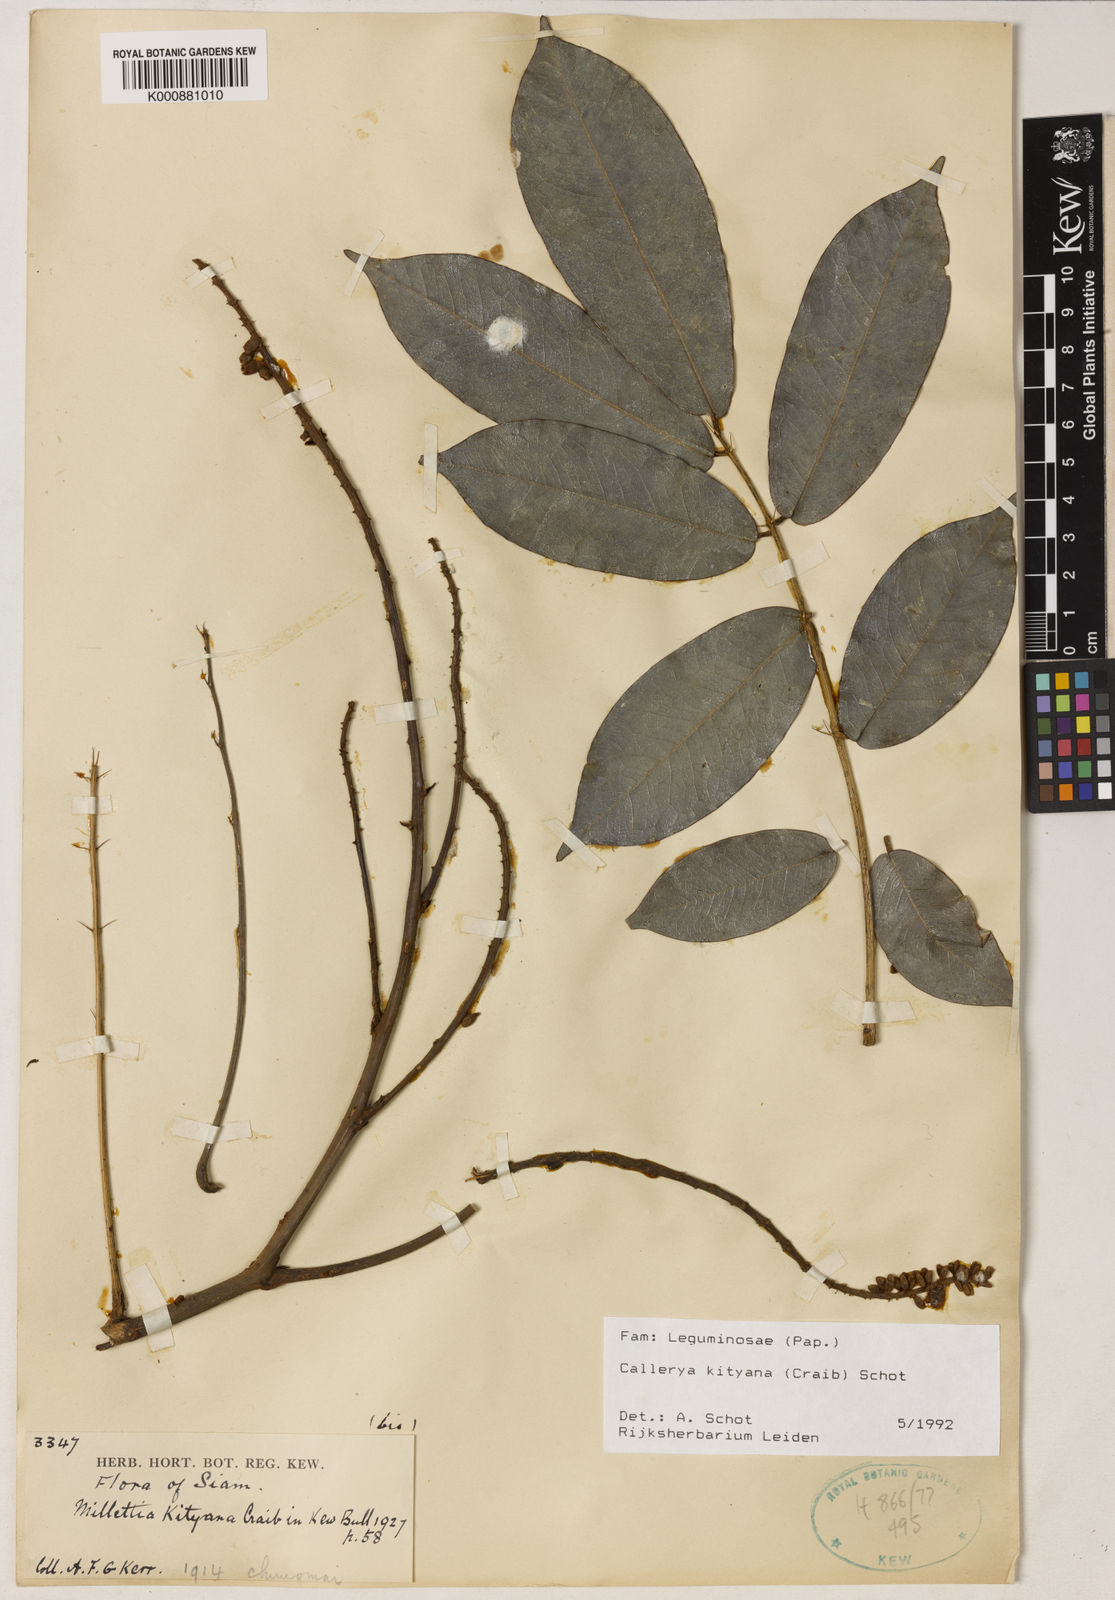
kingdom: Plantae
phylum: Tracheophyta
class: Magnoliopsida
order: Fabales
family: Fabaceae
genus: Sigmoidala
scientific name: Sigmoidala kityana
